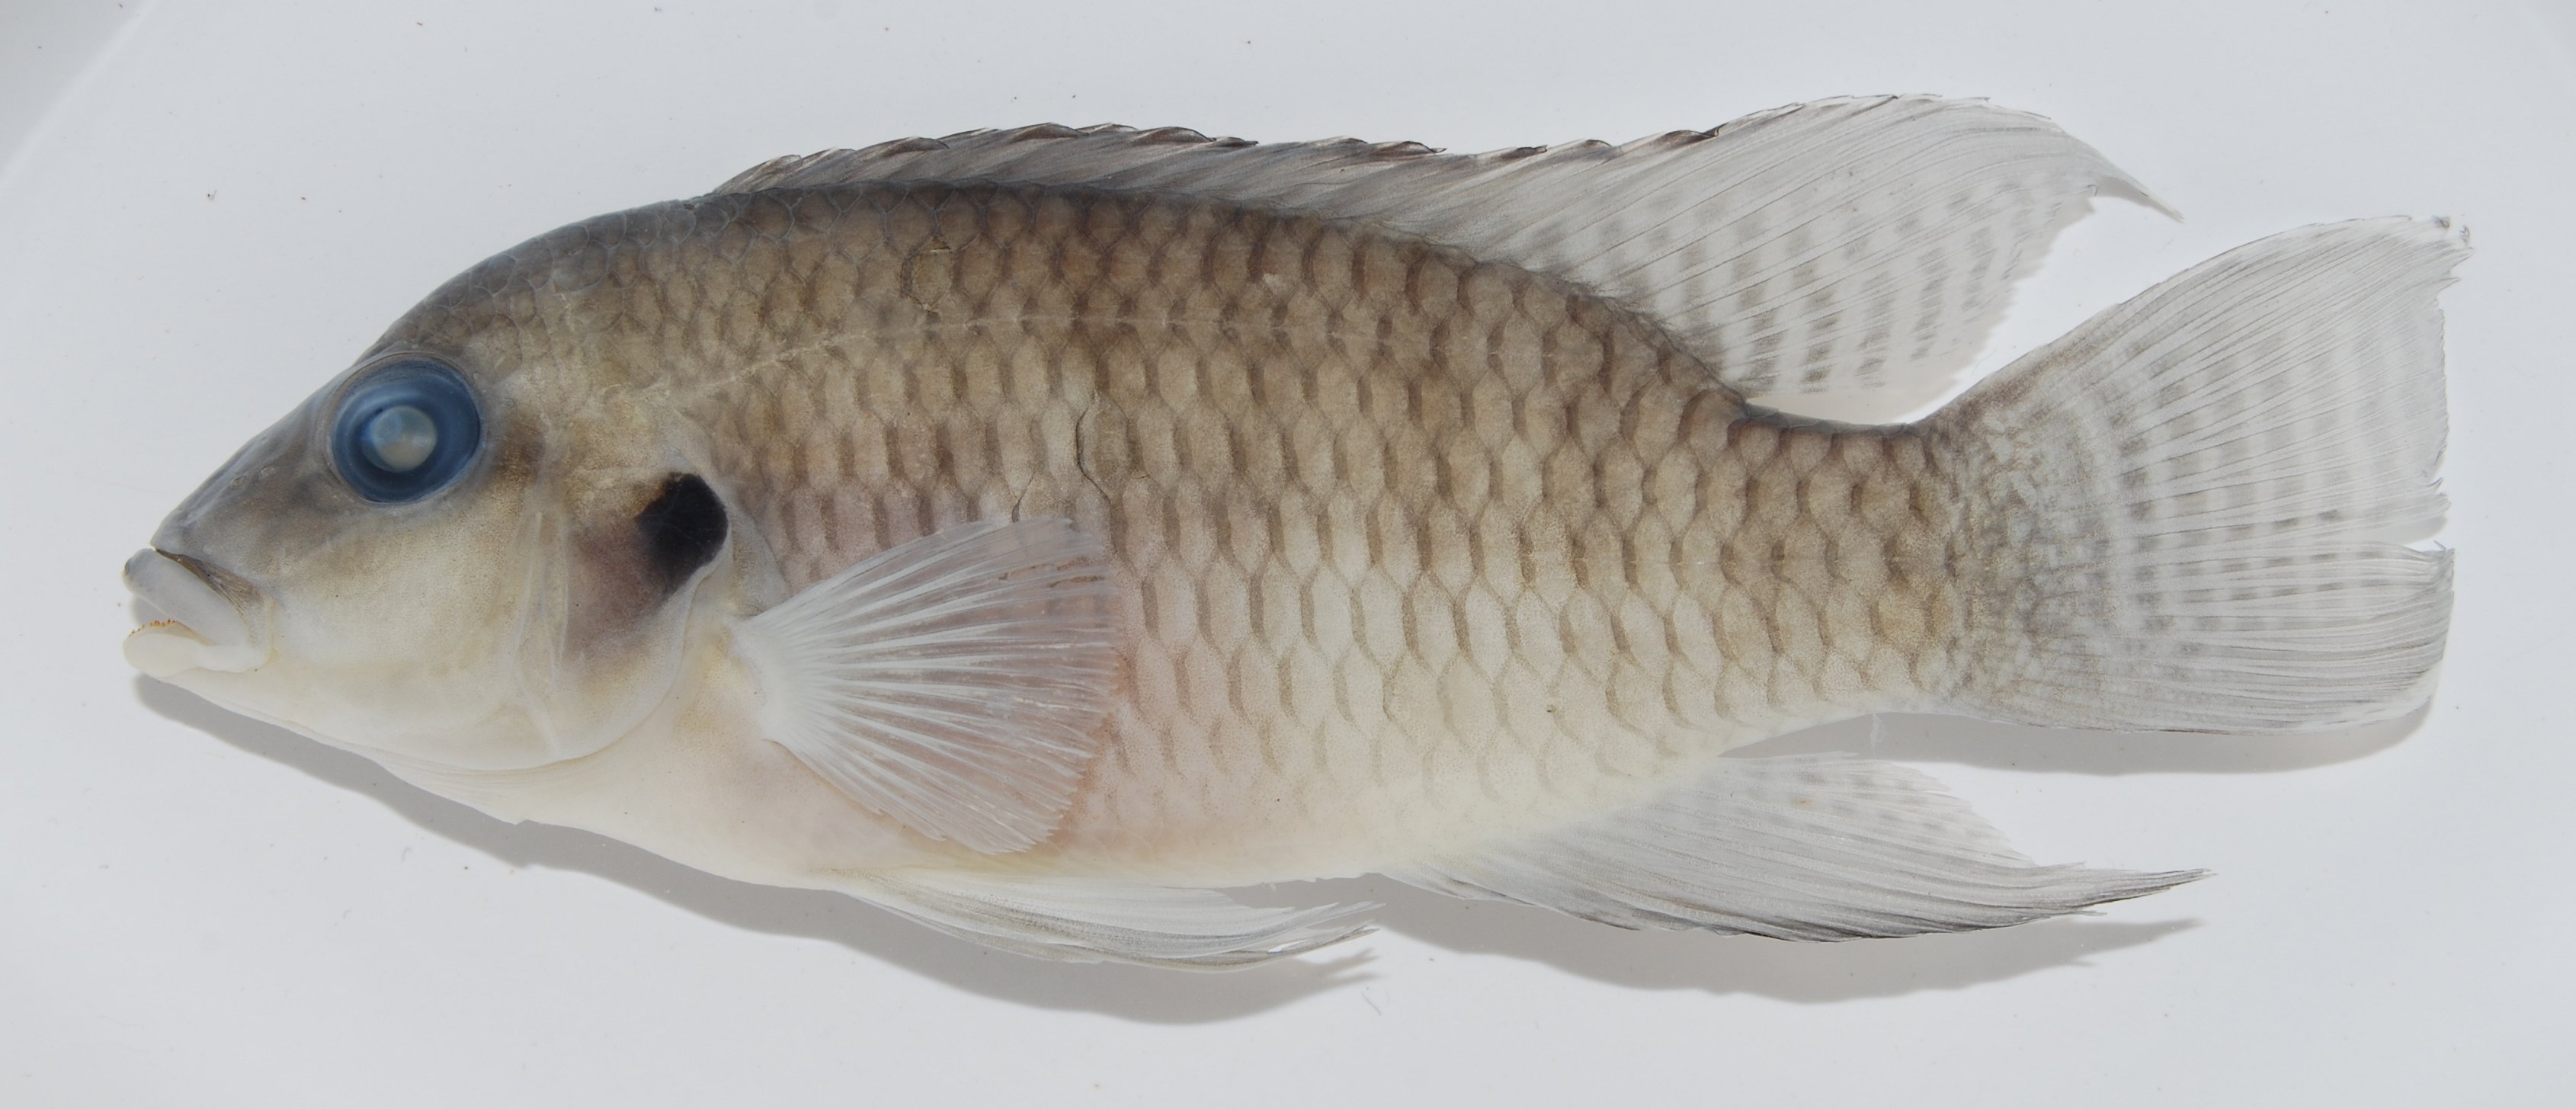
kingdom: Animalia
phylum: Chordata
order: Perciformes
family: Cichlidae
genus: Chromidotilapia
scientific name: Chromidotilapia kingsleyae
